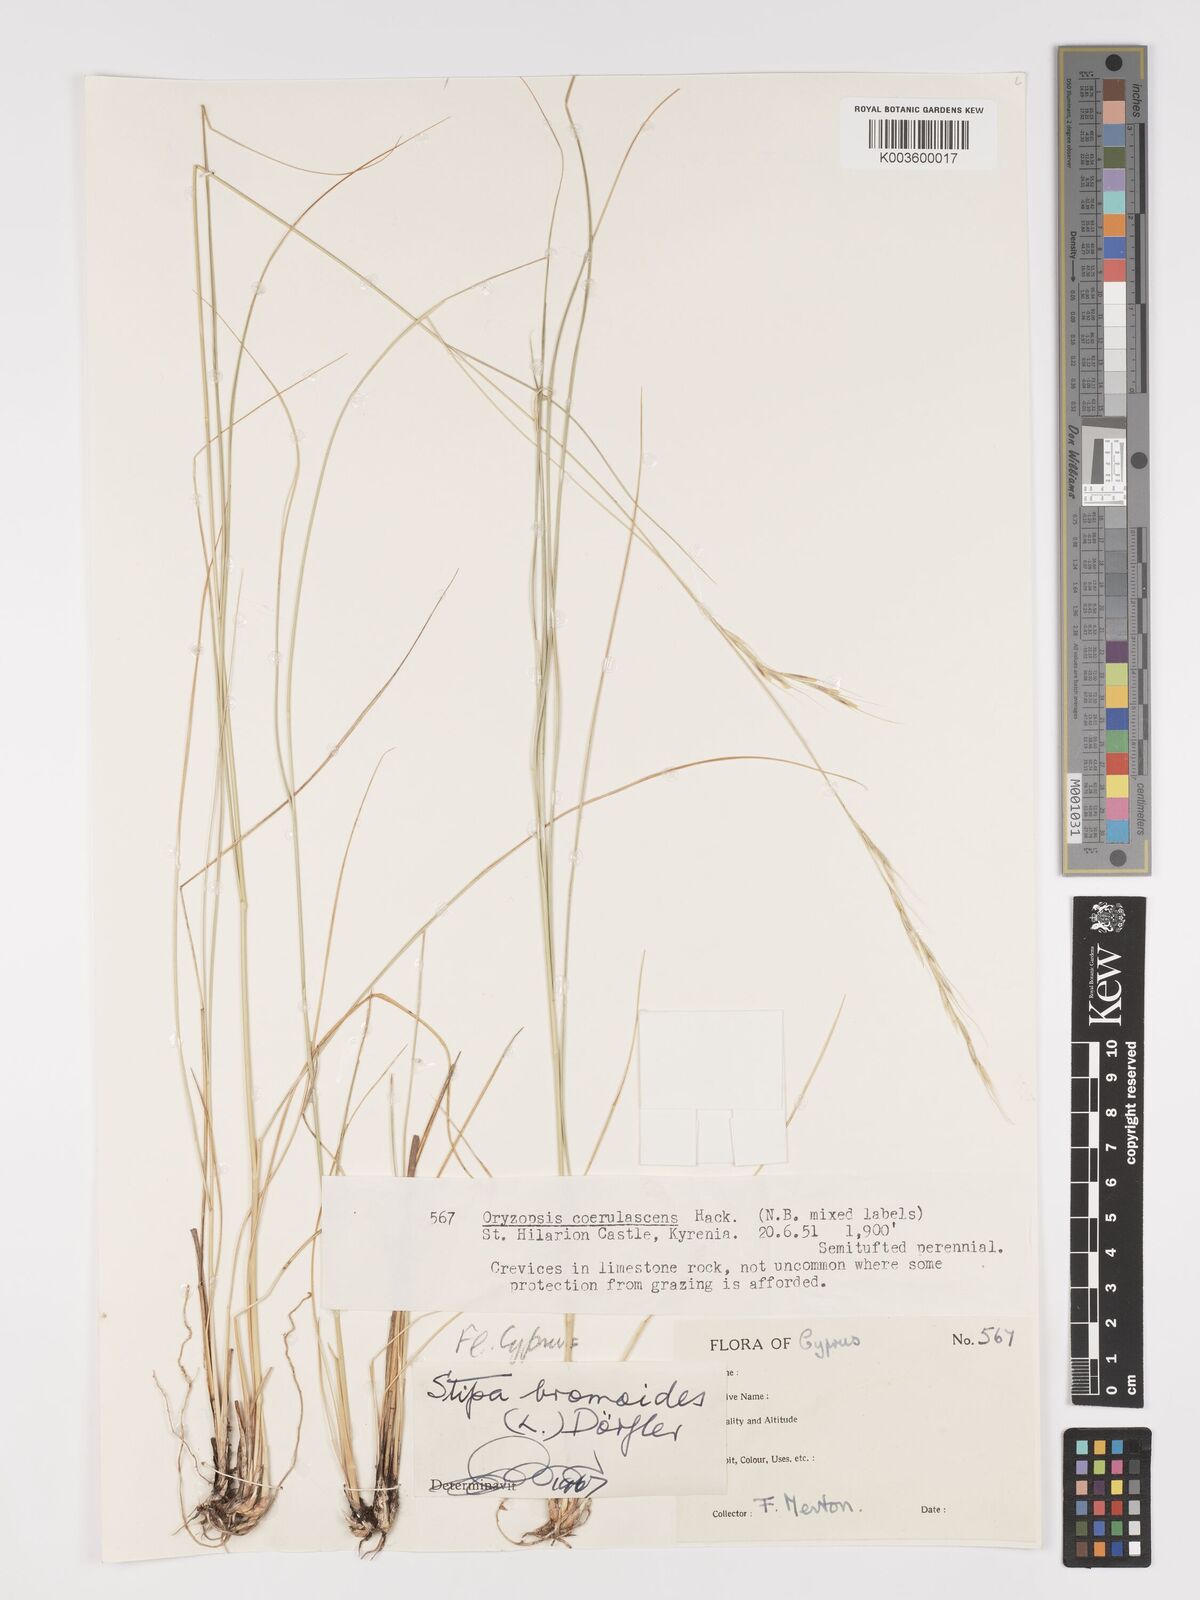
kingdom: Plantae
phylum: Tracheophyta
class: Liliopsida
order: Poales
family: Poaceae
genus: Achnatherum
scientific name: Achnatherum bromoides
